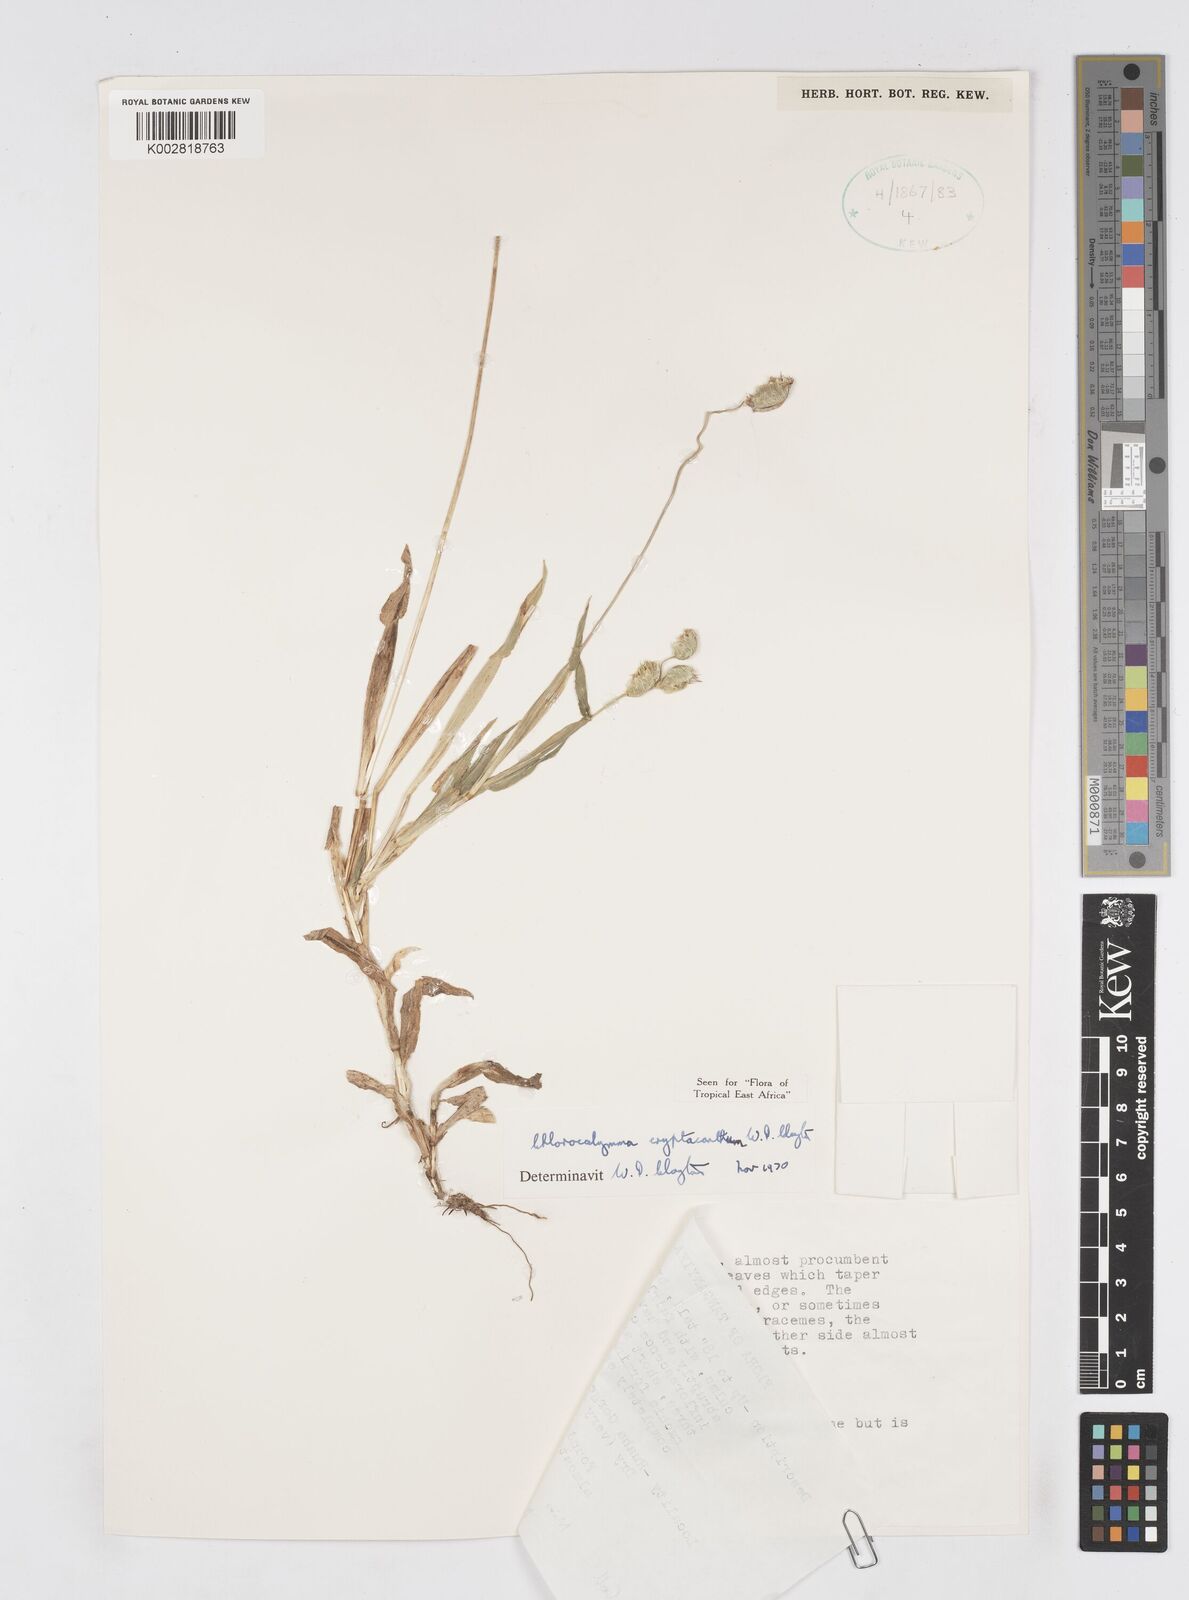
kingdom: Plantae
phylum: Tracheophyta
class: Liliopsida
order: Poales
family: Poaceae
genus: Chlorocalymma
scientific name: Chlorocalymma cryptacanthum
